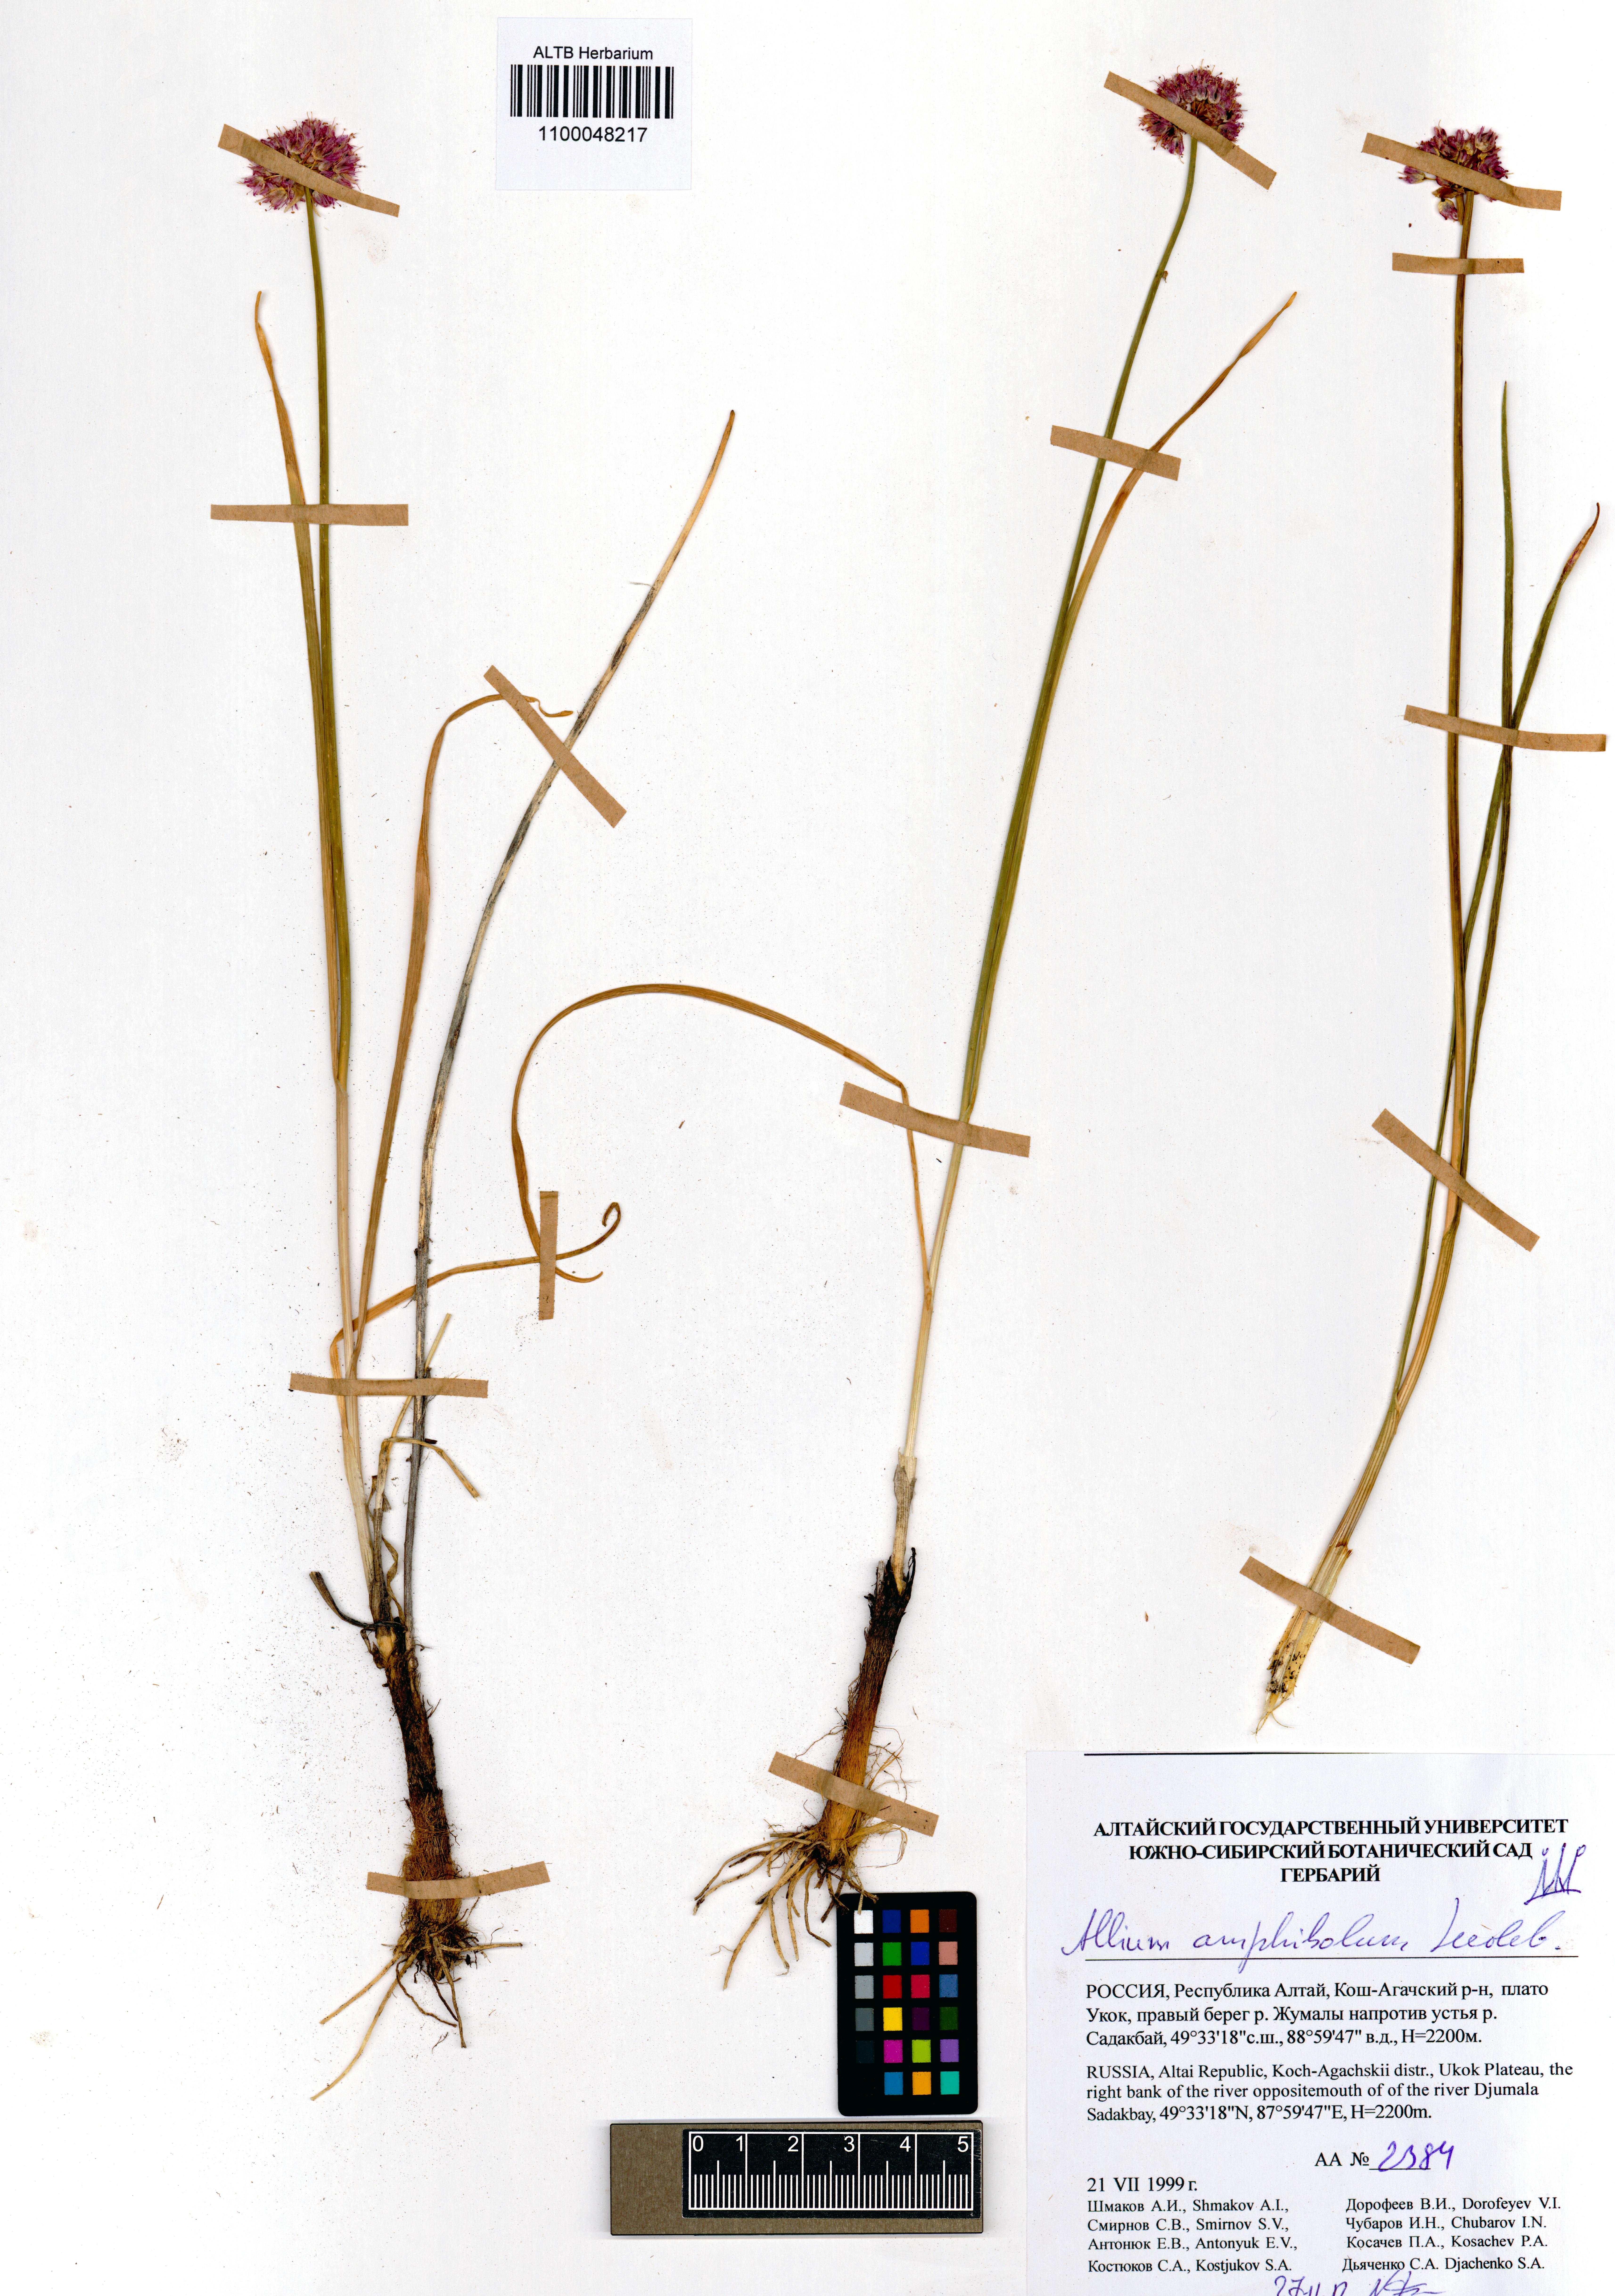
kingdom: Plantae
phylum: Tracheophyta
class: Liliopsida
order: Asparagales
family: Amaryllidaceae
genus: Allium
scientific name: Allium amphibolum
